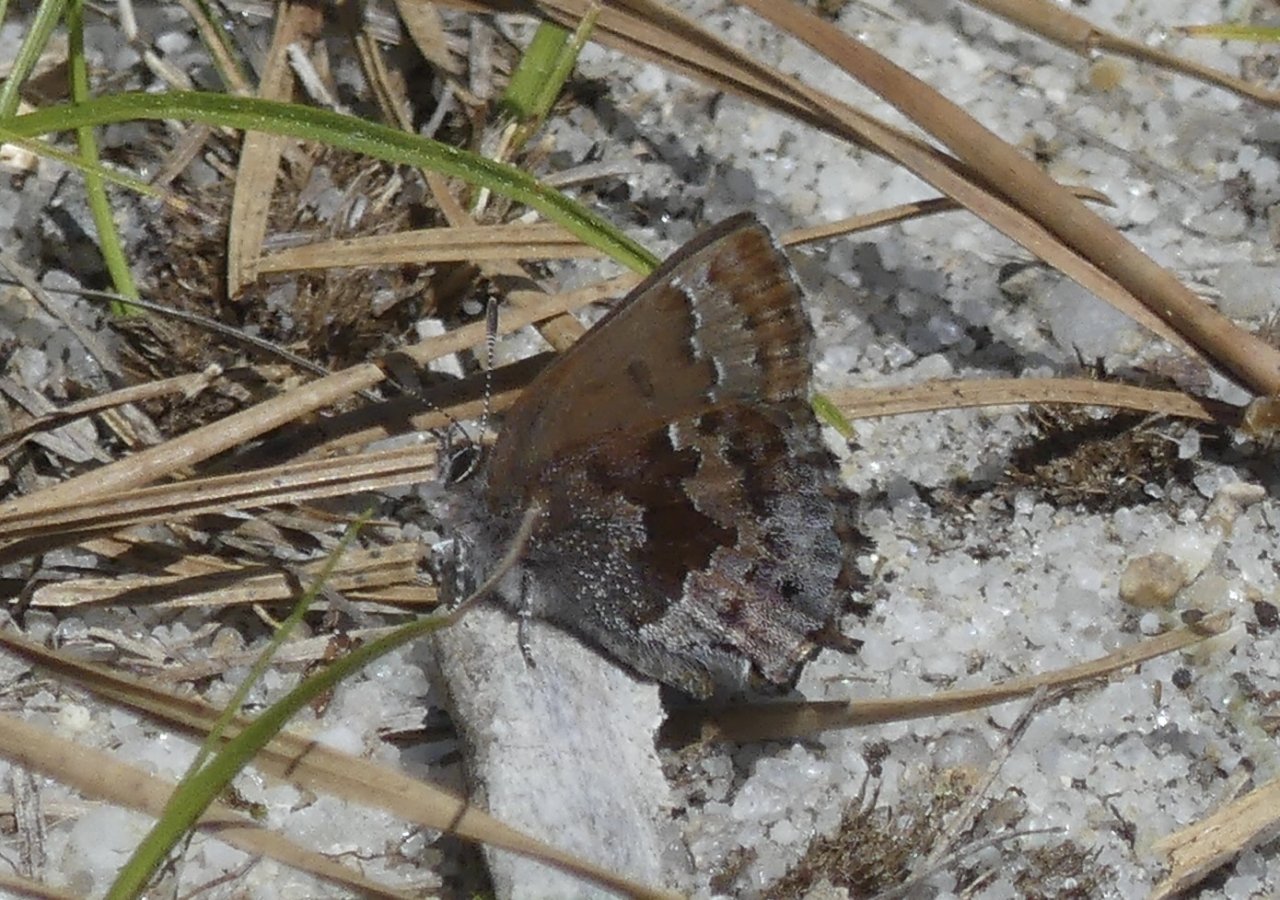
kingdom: Animalia
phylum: Arthropoda
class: Insecta
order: Lepidoptera
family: Lycaenidae
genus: Thecla
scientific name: Thecla irus
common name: Frosted Elfin
